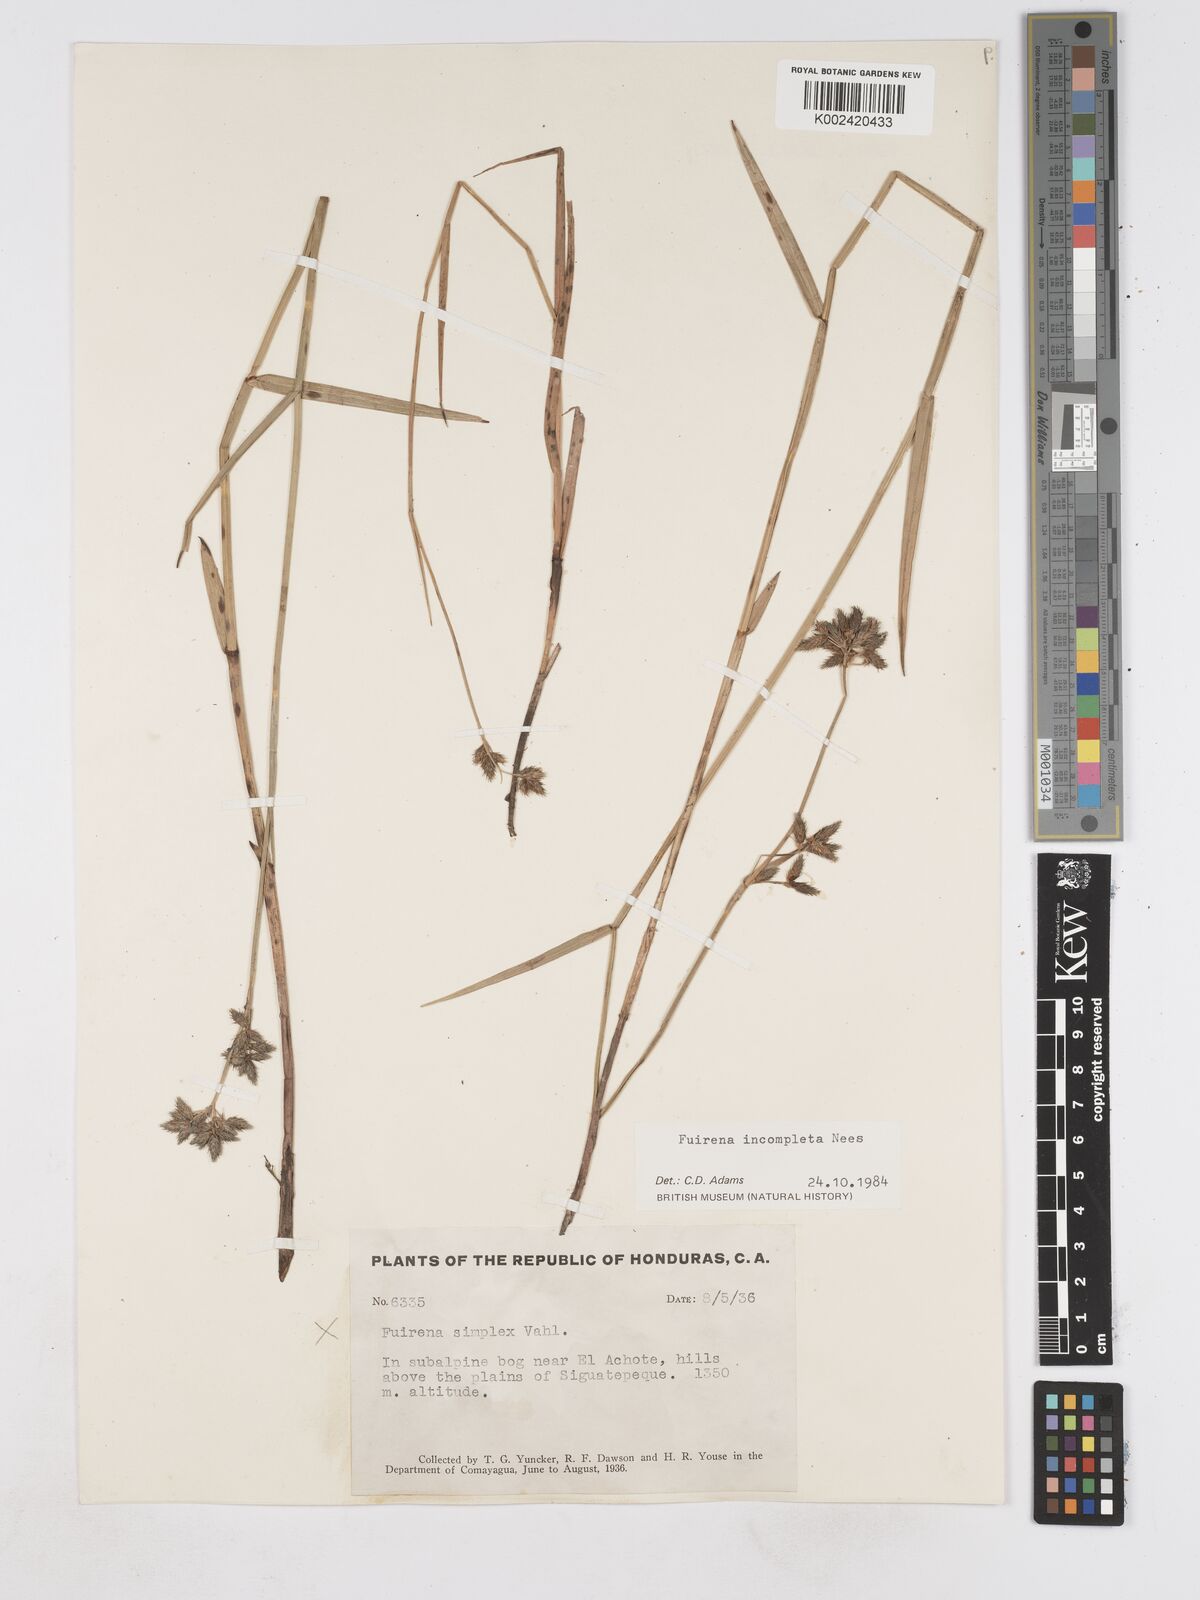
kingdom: Plantae
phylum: Tracheophyta
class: Liliopsida
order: Poales
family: Cyperaceae
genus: Fuirena
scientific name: Fuirena incompleta
